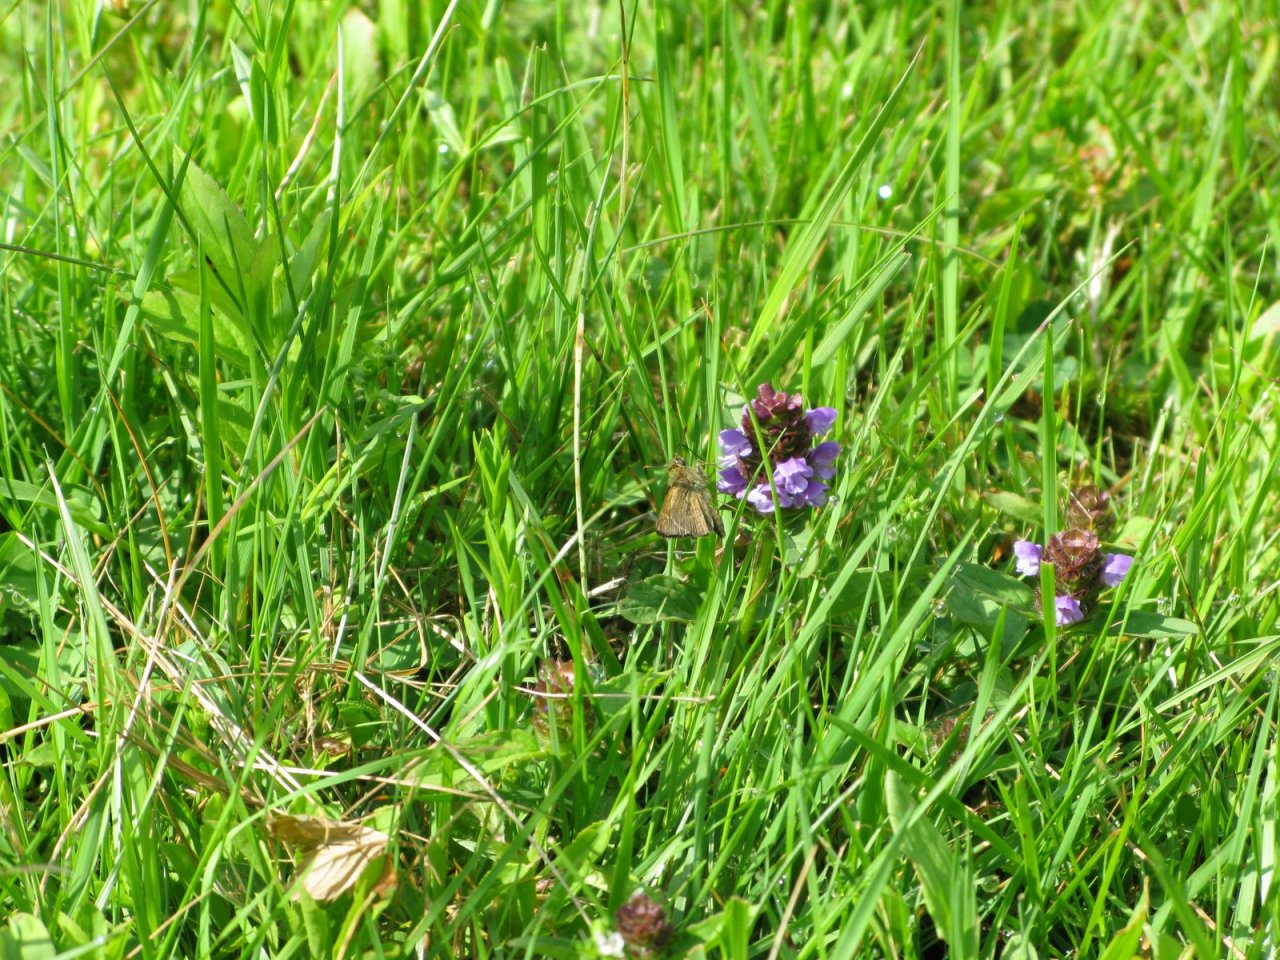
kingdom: Animalia
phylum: Arthropoda
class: Insecta
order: Lepidoptera
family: Hesperiidae
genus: Polites
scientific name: Polites themistocles
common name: Tawny-edged Skipper
